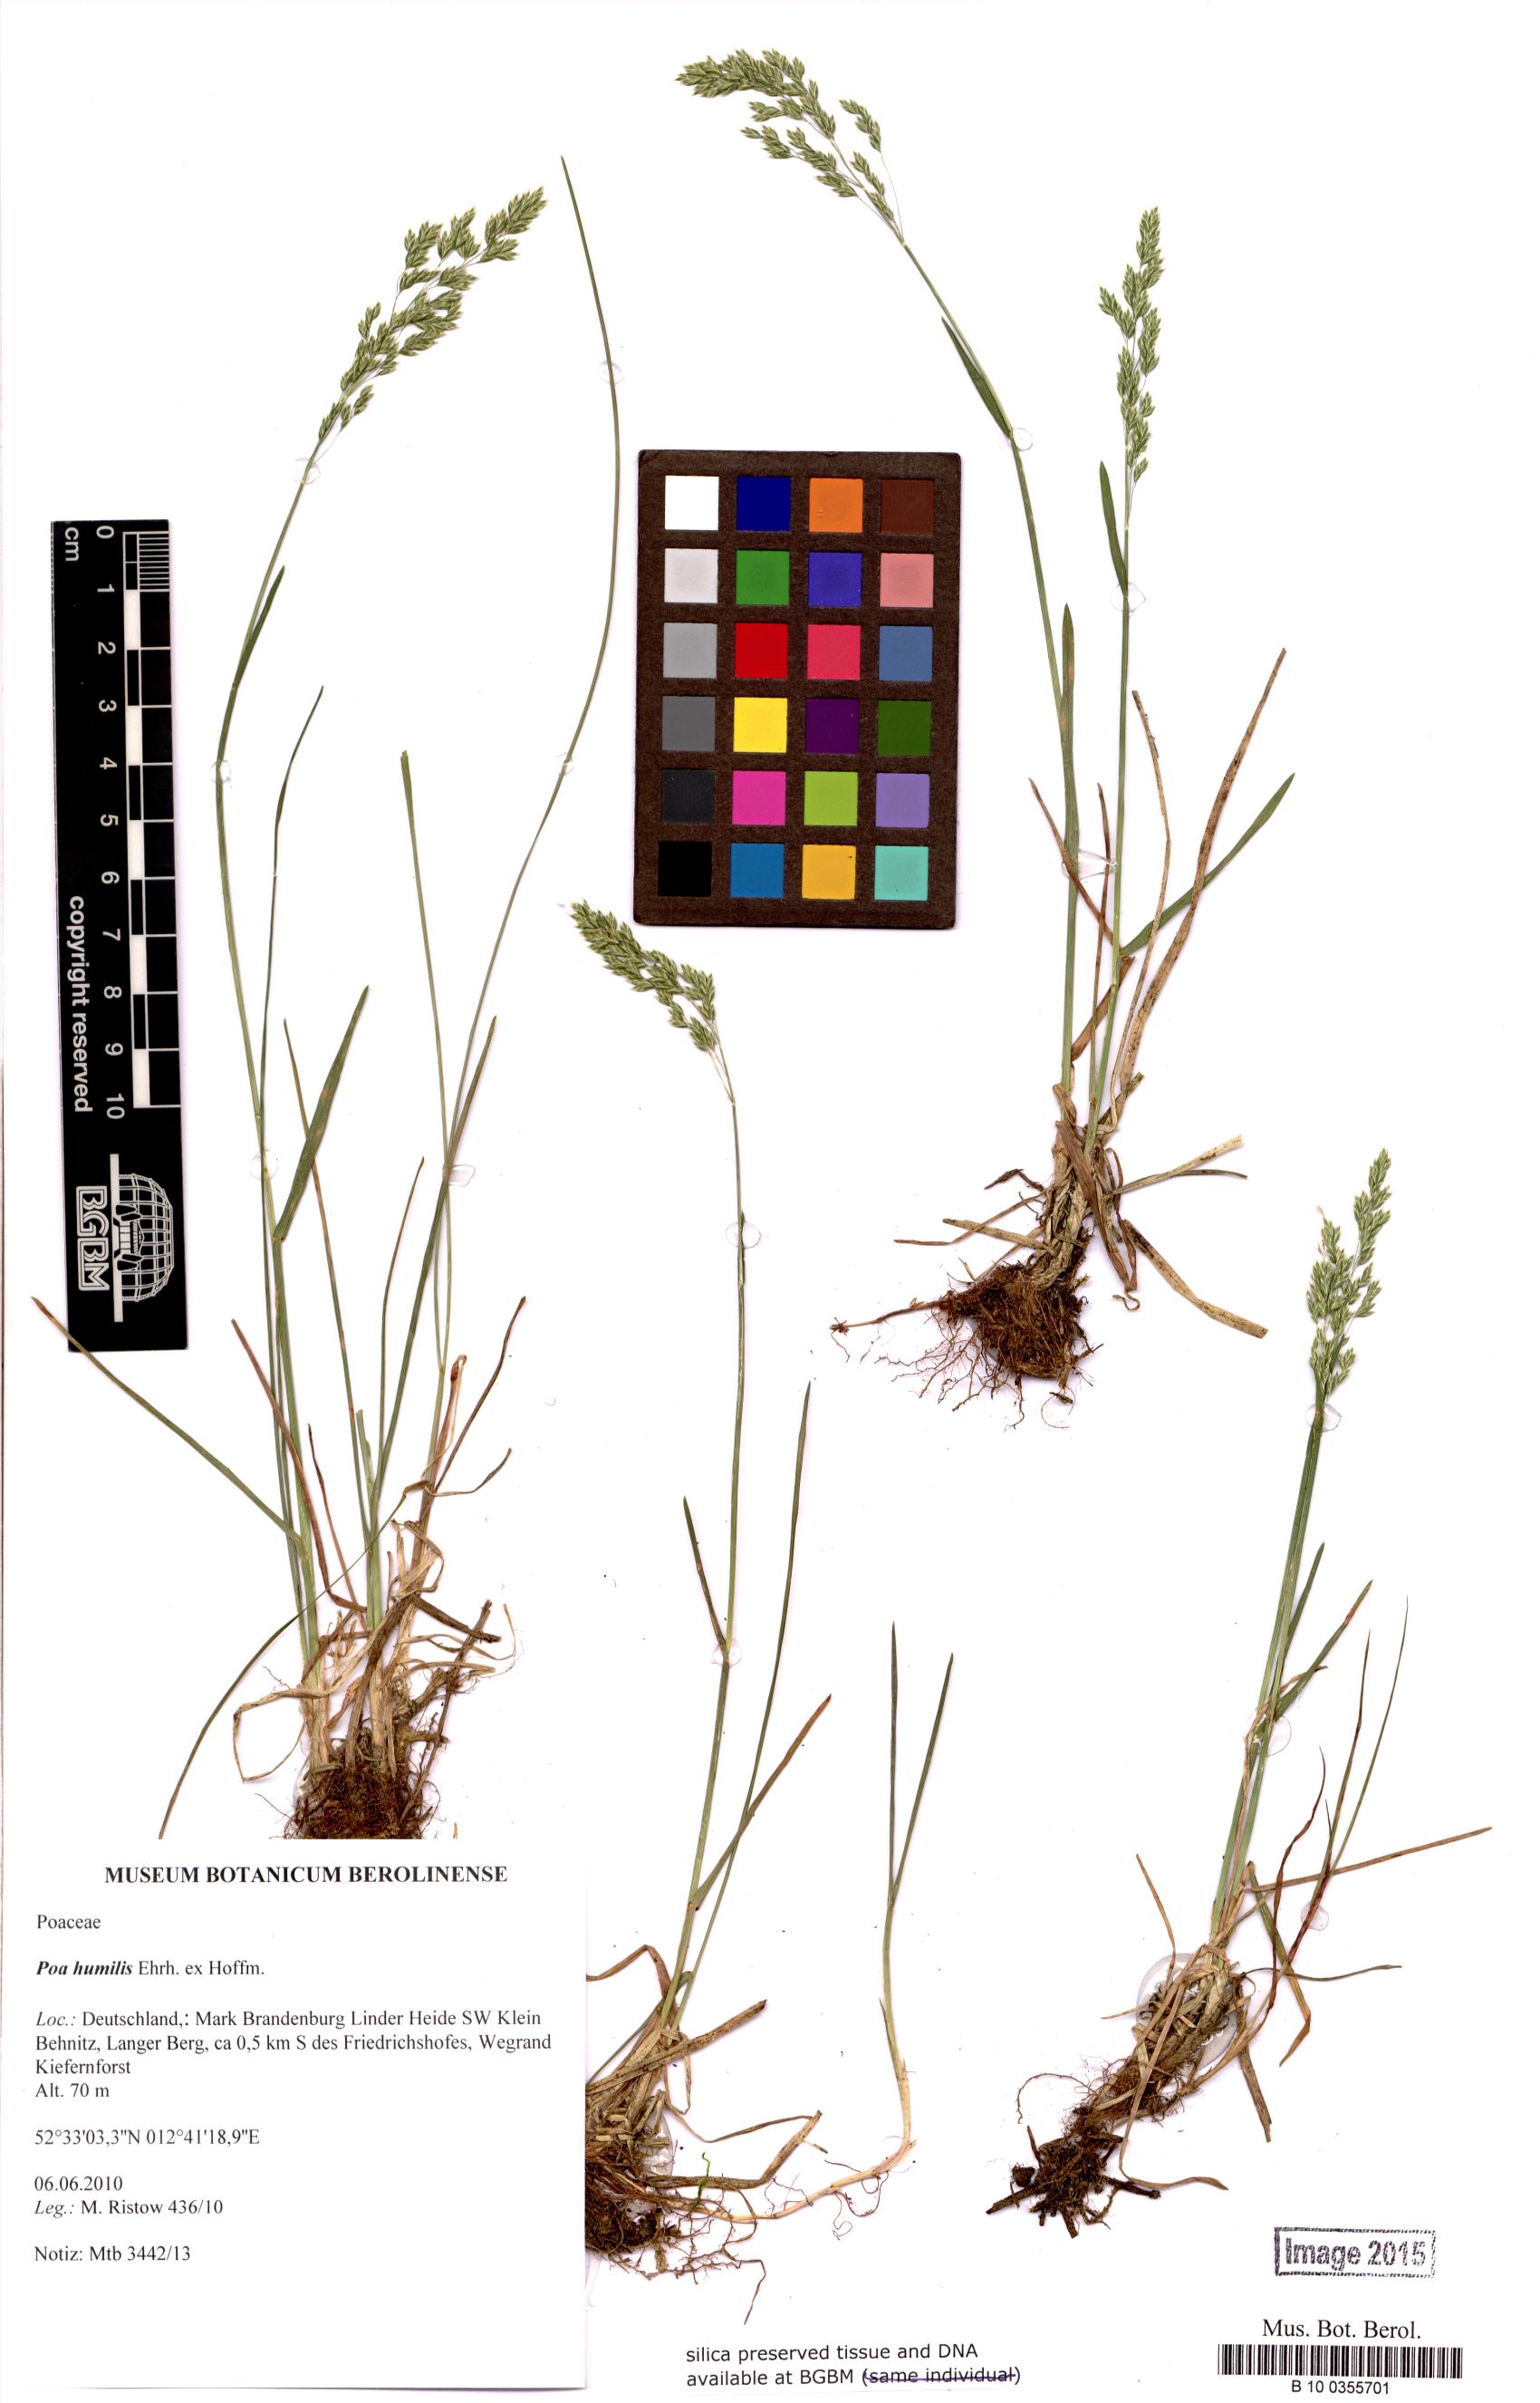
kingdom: Plantae
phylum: Tracheophyta
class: Liliopsida
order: Poales
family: Poaceae
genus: Poa
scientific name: Poa humilis
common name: Spreading meadow-grass
